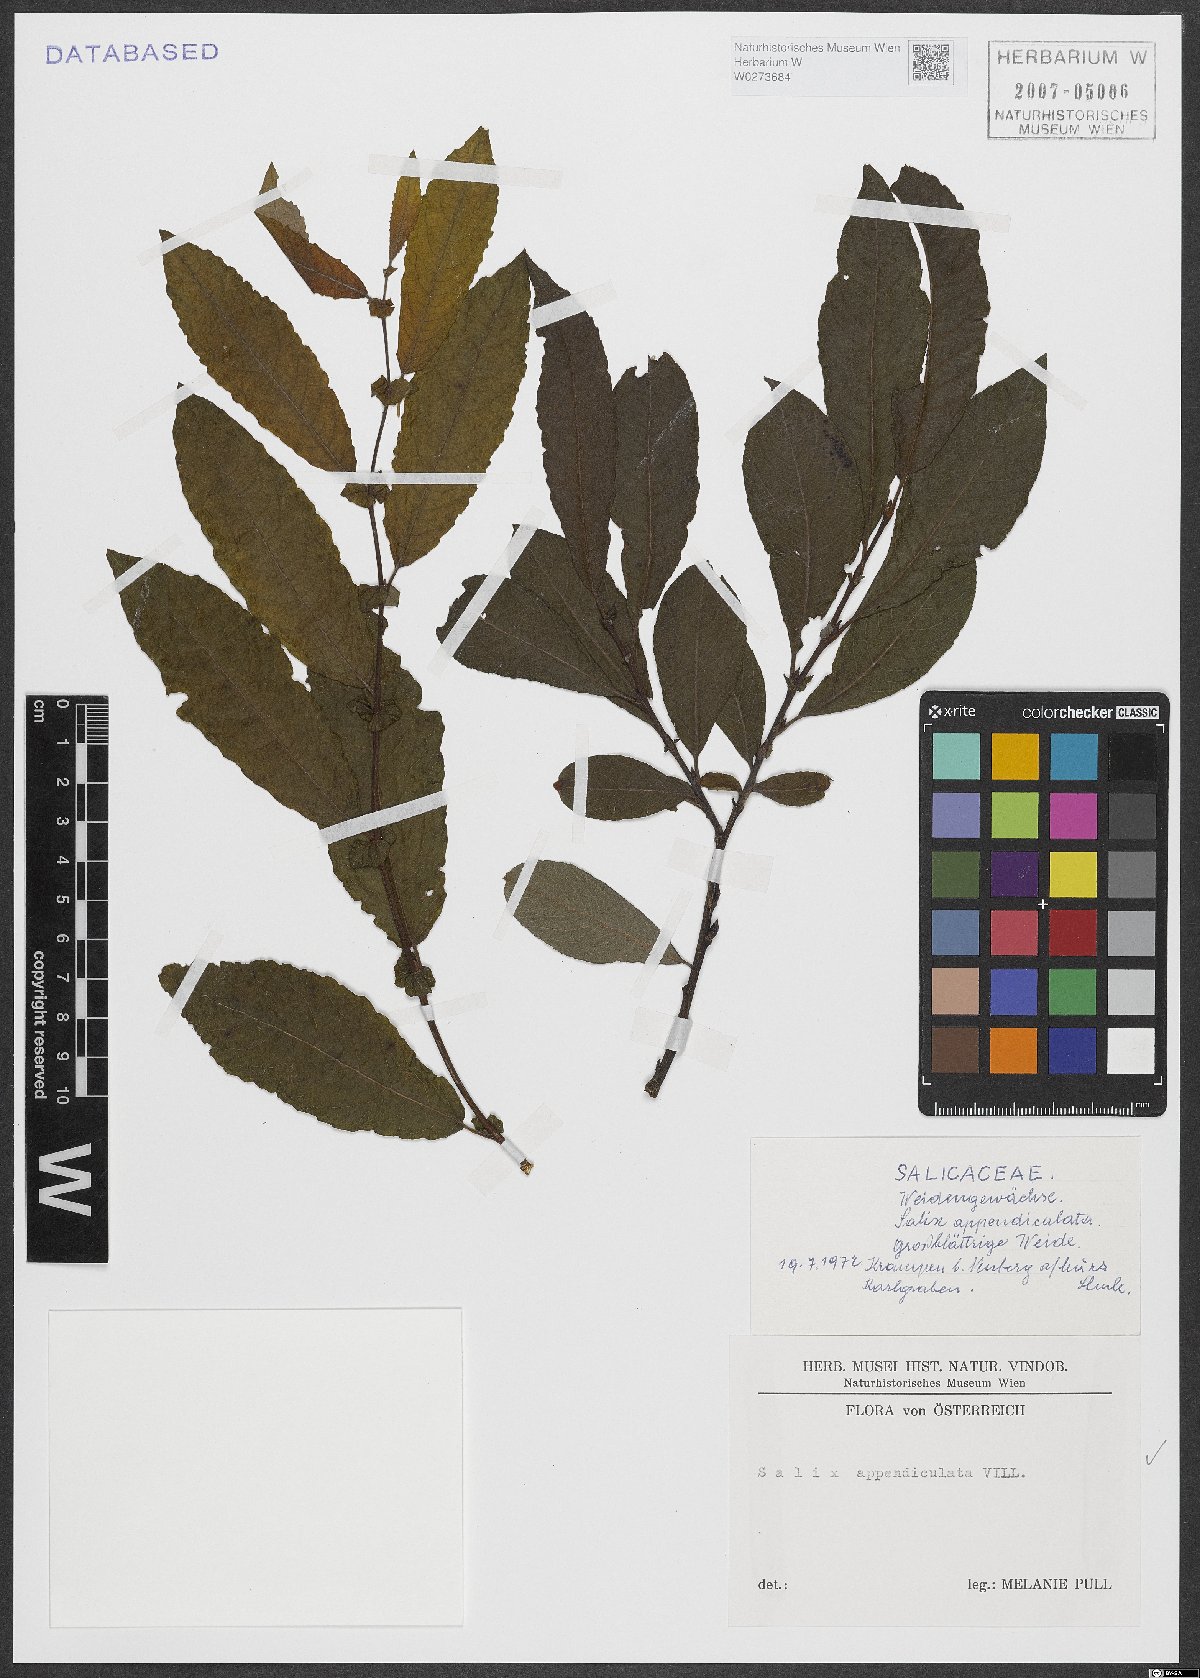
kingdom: Plantae
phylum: Tracheophyta
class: Magnoliopsida
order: Malpighiales
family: Salicaceae
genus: Salix
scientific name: Salix appendiculata
